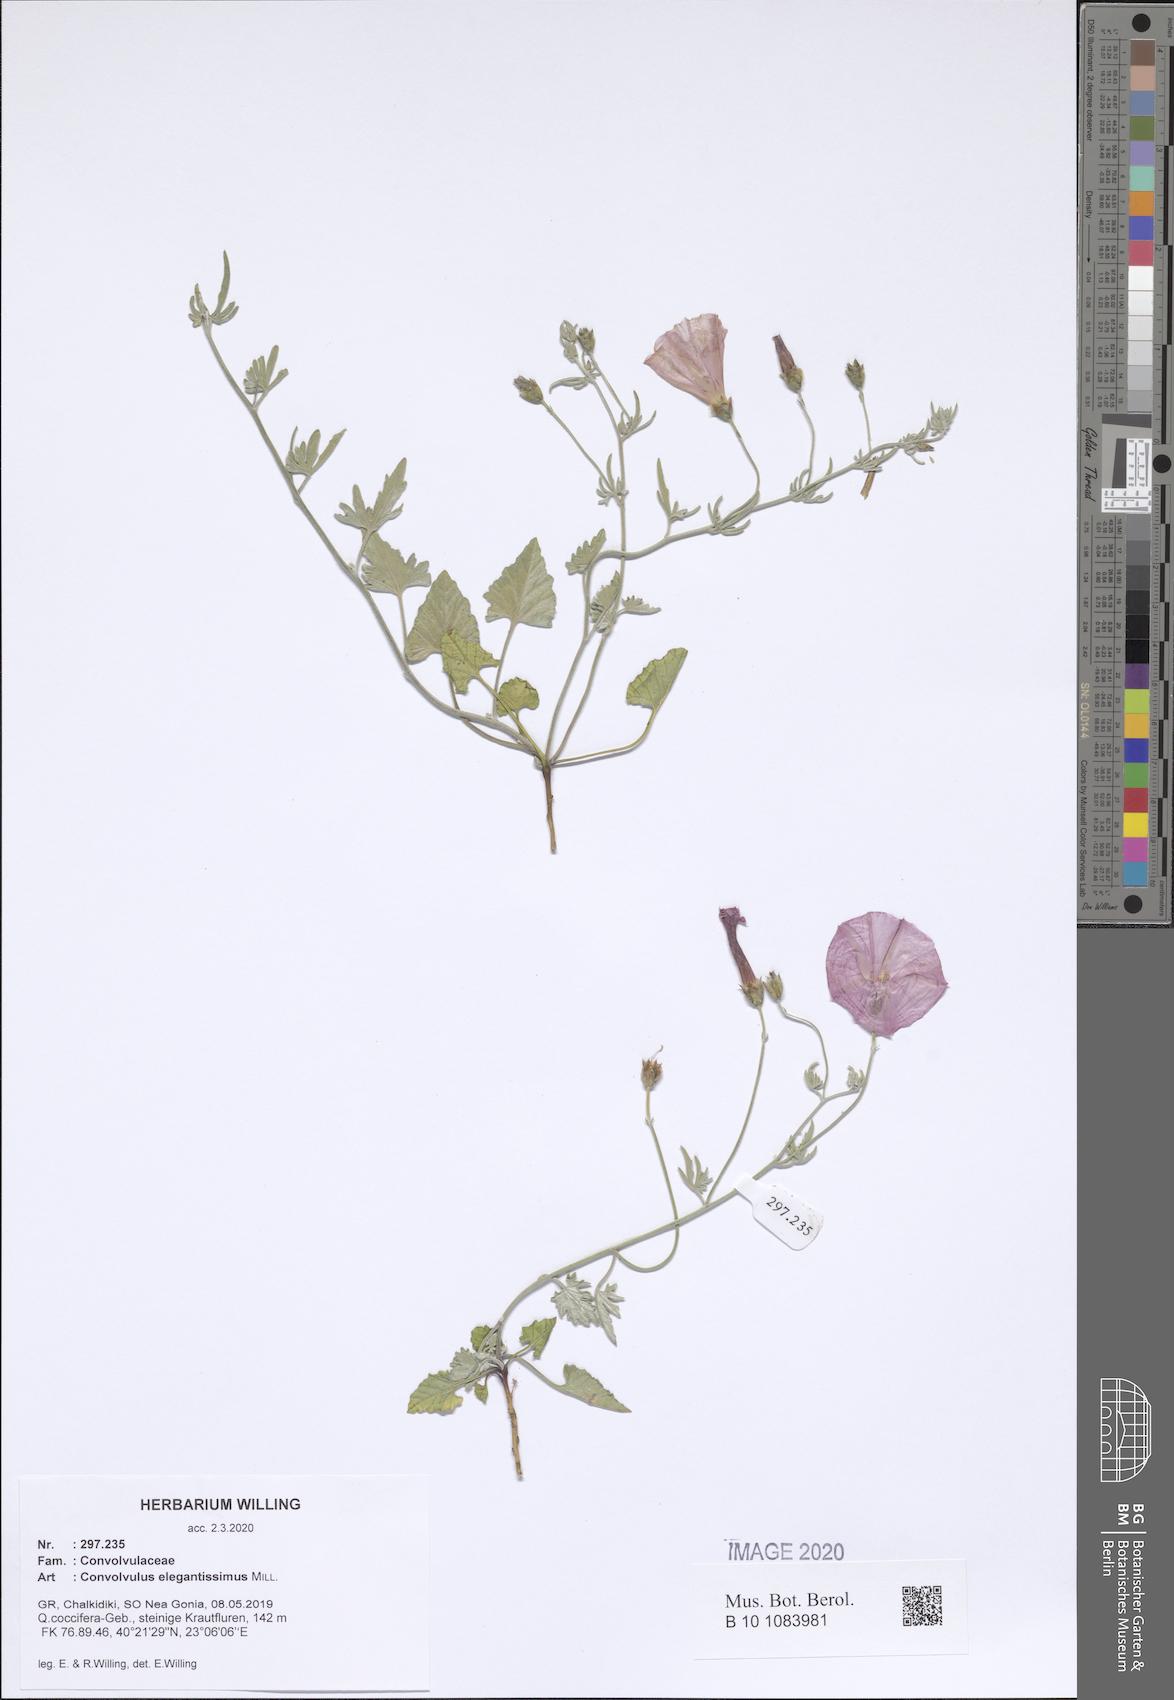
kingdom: Plantae
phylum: Tracheophyta
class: Magnoliopsida
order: Solanales
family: Convolvulaceae
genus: Convolvulus
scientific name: Convolvulus elegantissimus
